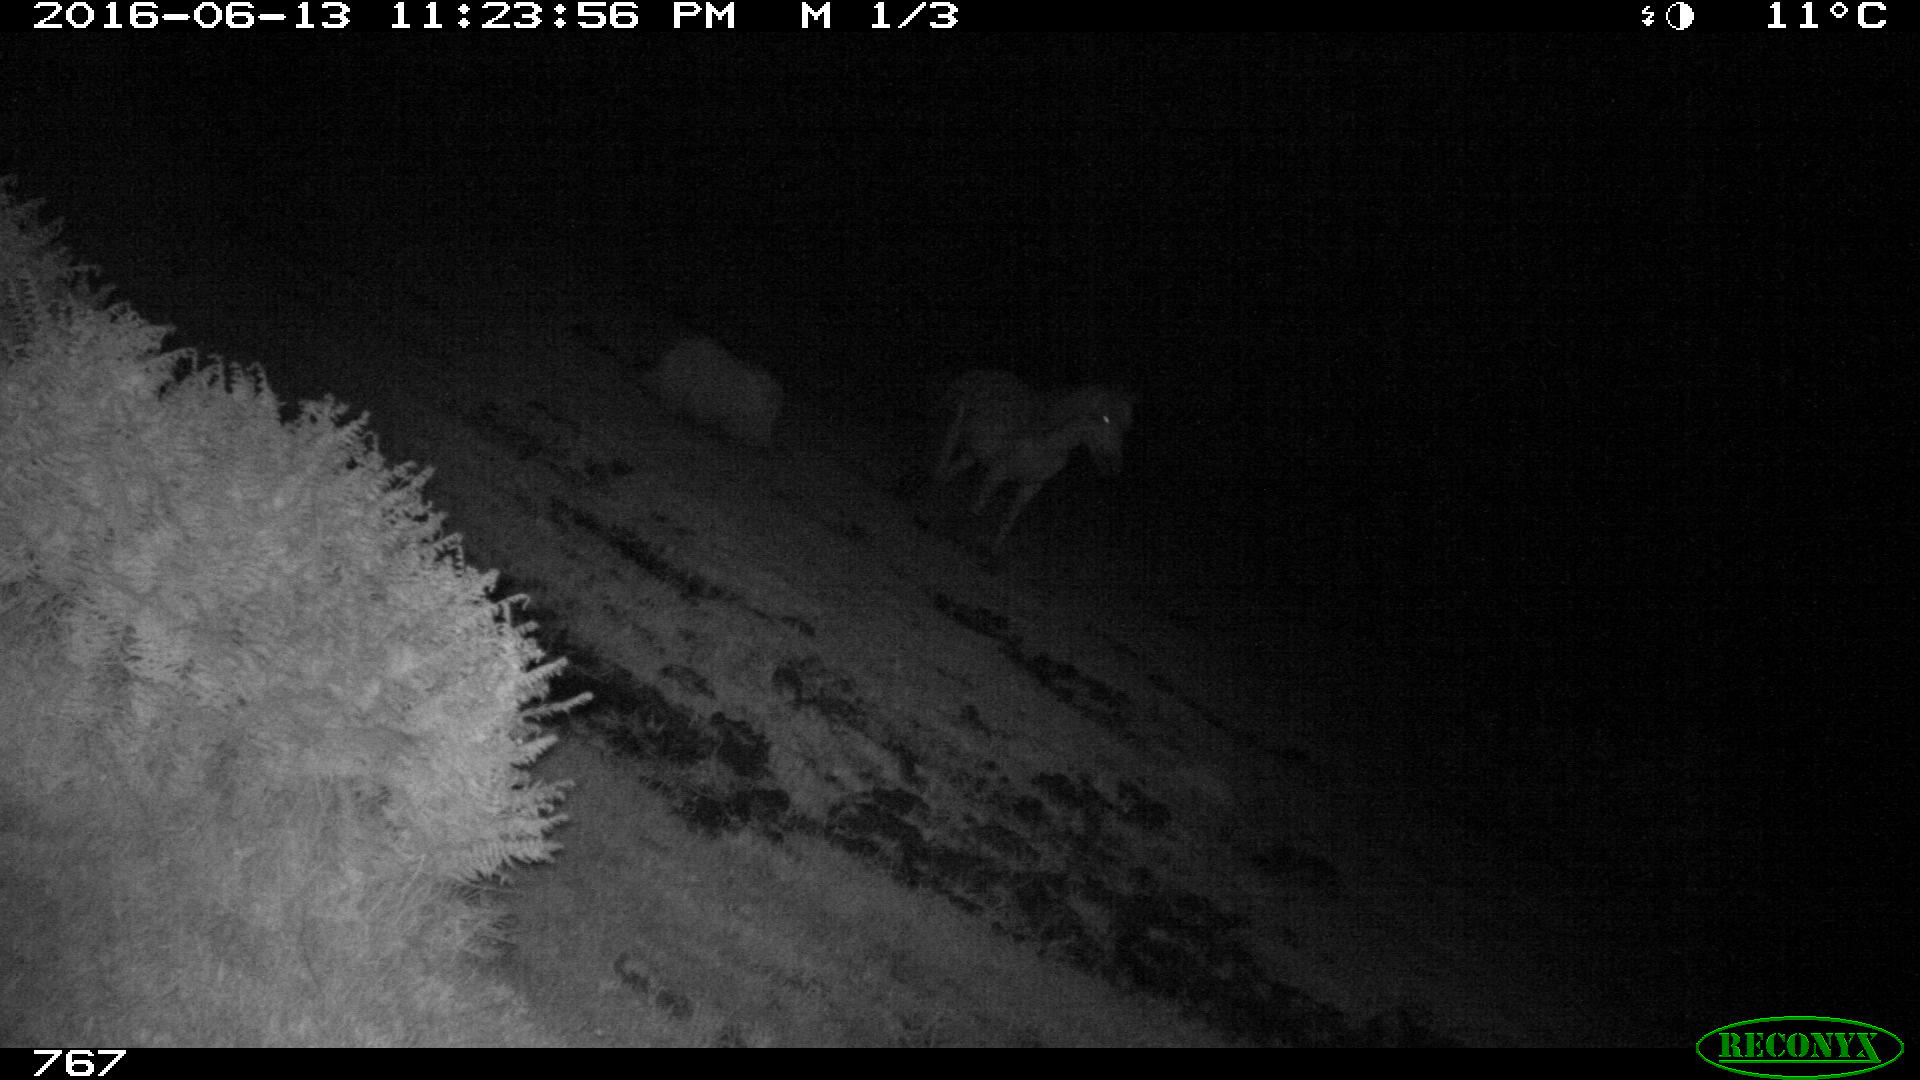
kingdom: Animalia
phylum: Chordata
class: Mammalia
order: Perissodactyla
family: Equidae
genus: Equus
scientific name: Equus caballus
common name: Horse
